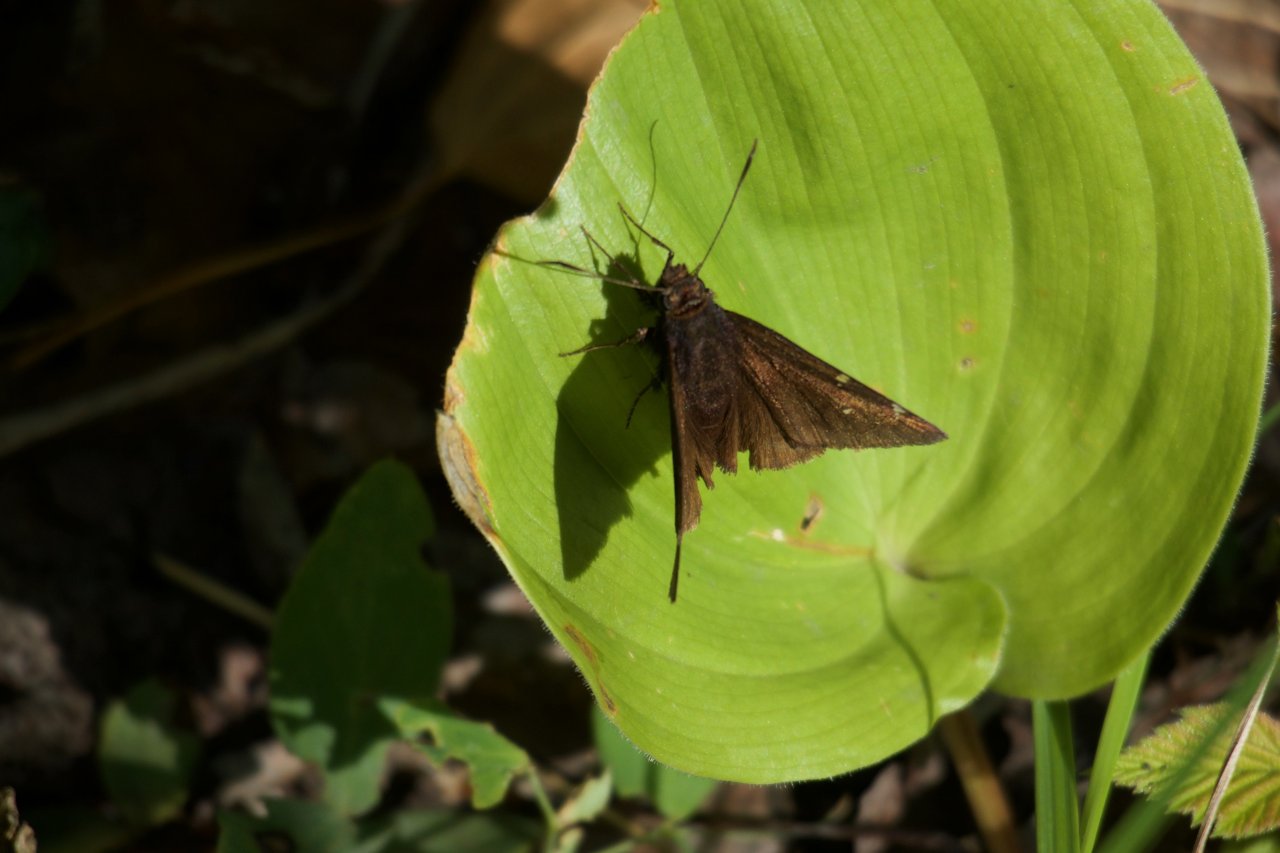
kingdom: Animalia
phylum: Arthropoda
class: Insecta
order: Lepidoptera
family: Hesperiidae
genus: Autochton
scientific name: Autochton
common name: Northern Cloudywing
